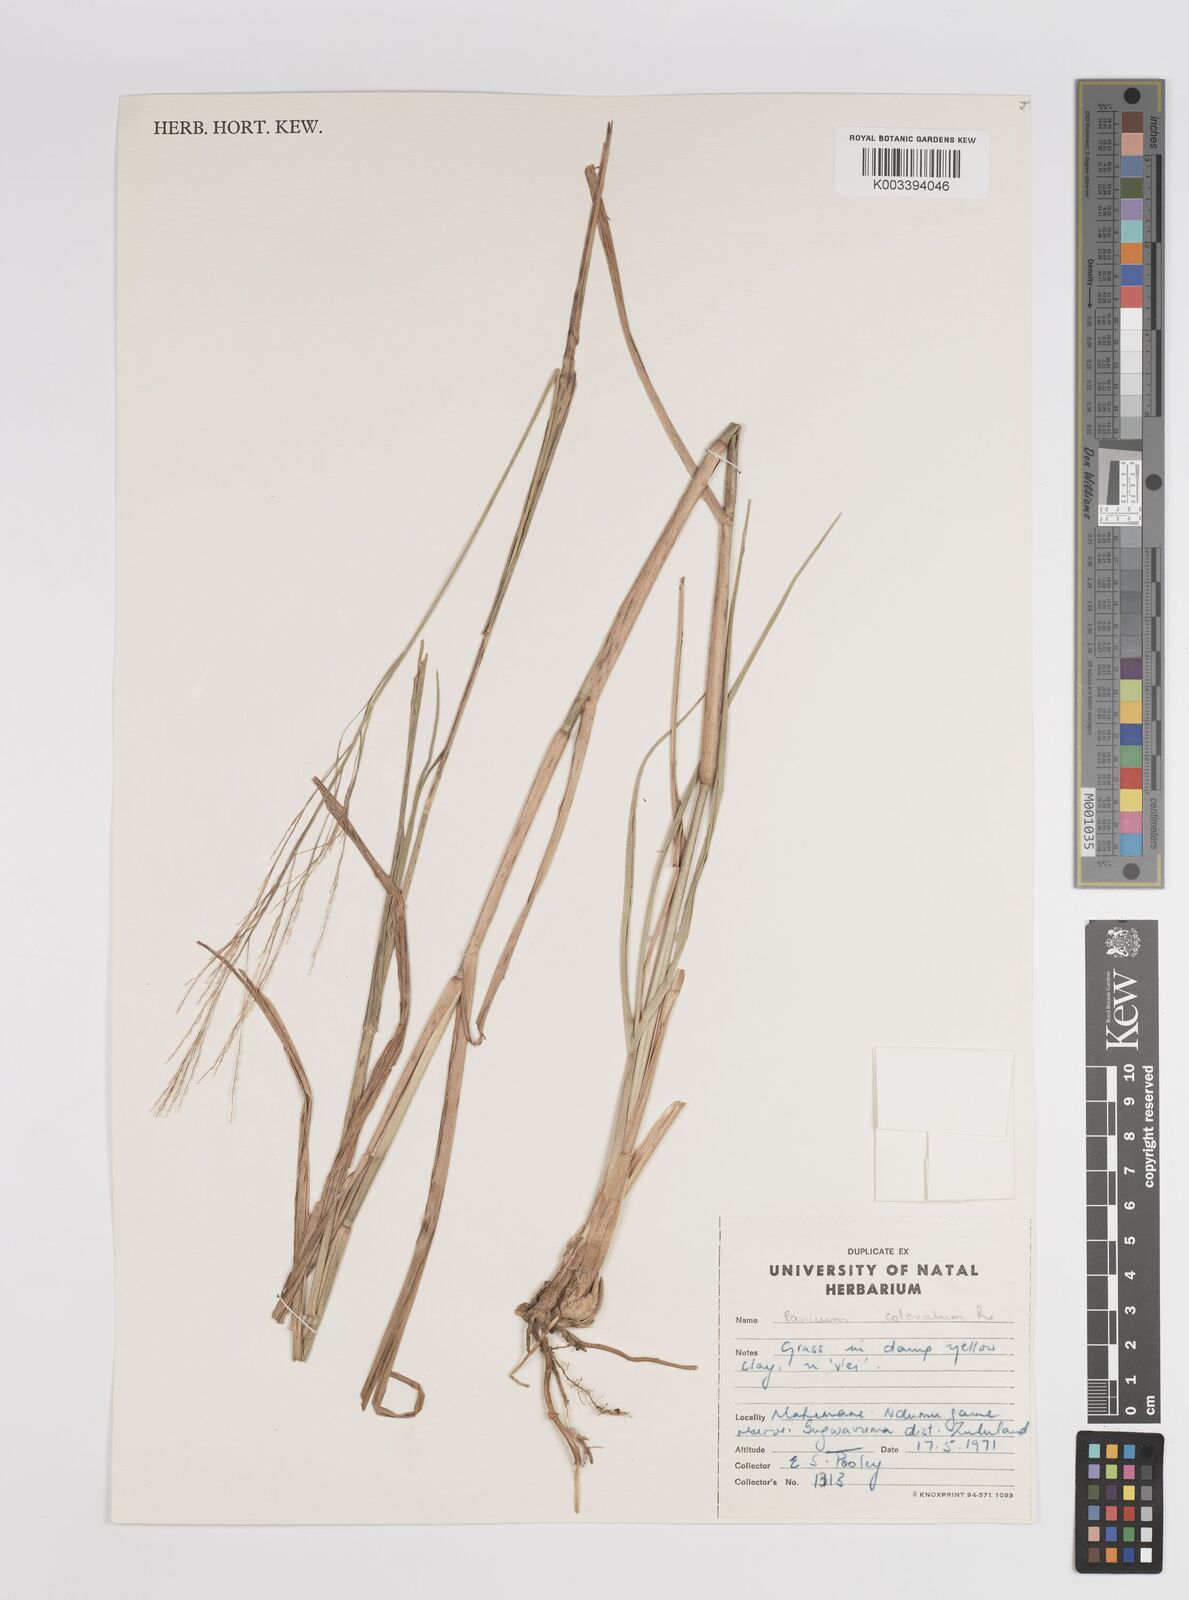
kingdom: Plantae
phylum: Tracheophyta
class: Liliopsida
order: Poales
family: Poaceae
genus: Panicum
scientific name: Panicum coloratum
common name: Kleingrass
